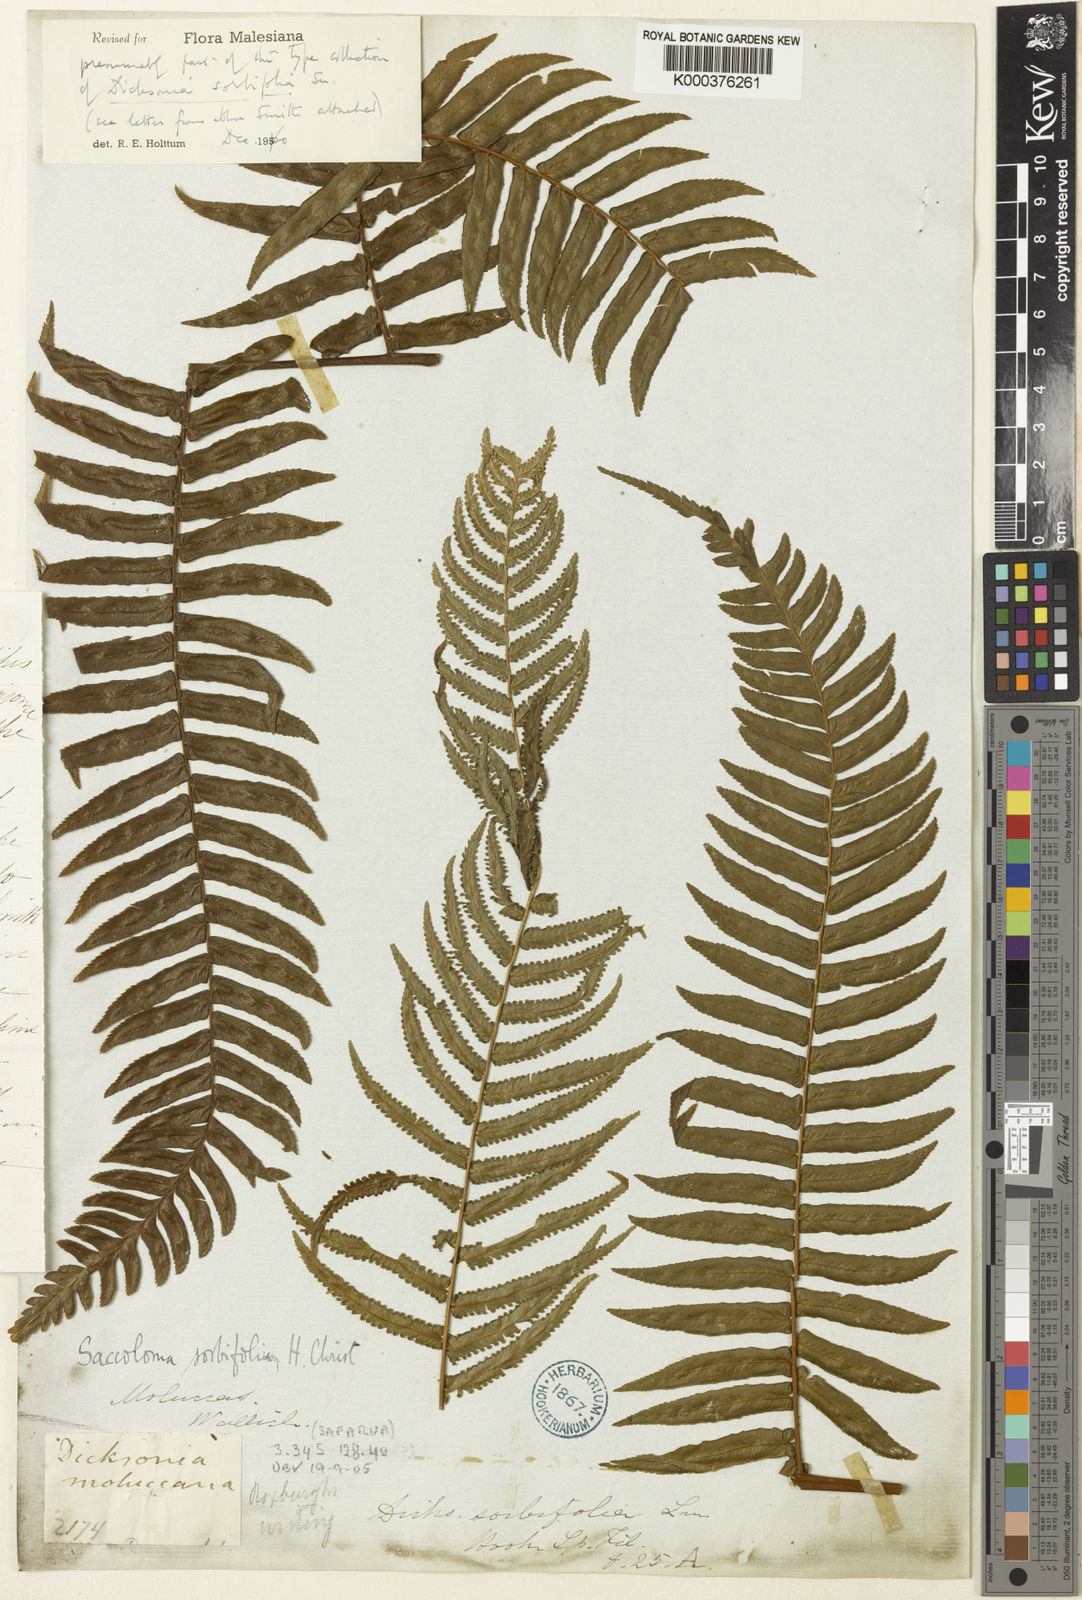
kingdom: Plantae
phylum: Tracheophyta
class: Polypodiopsida
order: Polypodiales
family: Cystodiaceae
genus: Cystodium
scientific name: Cystodium sorbifolium
